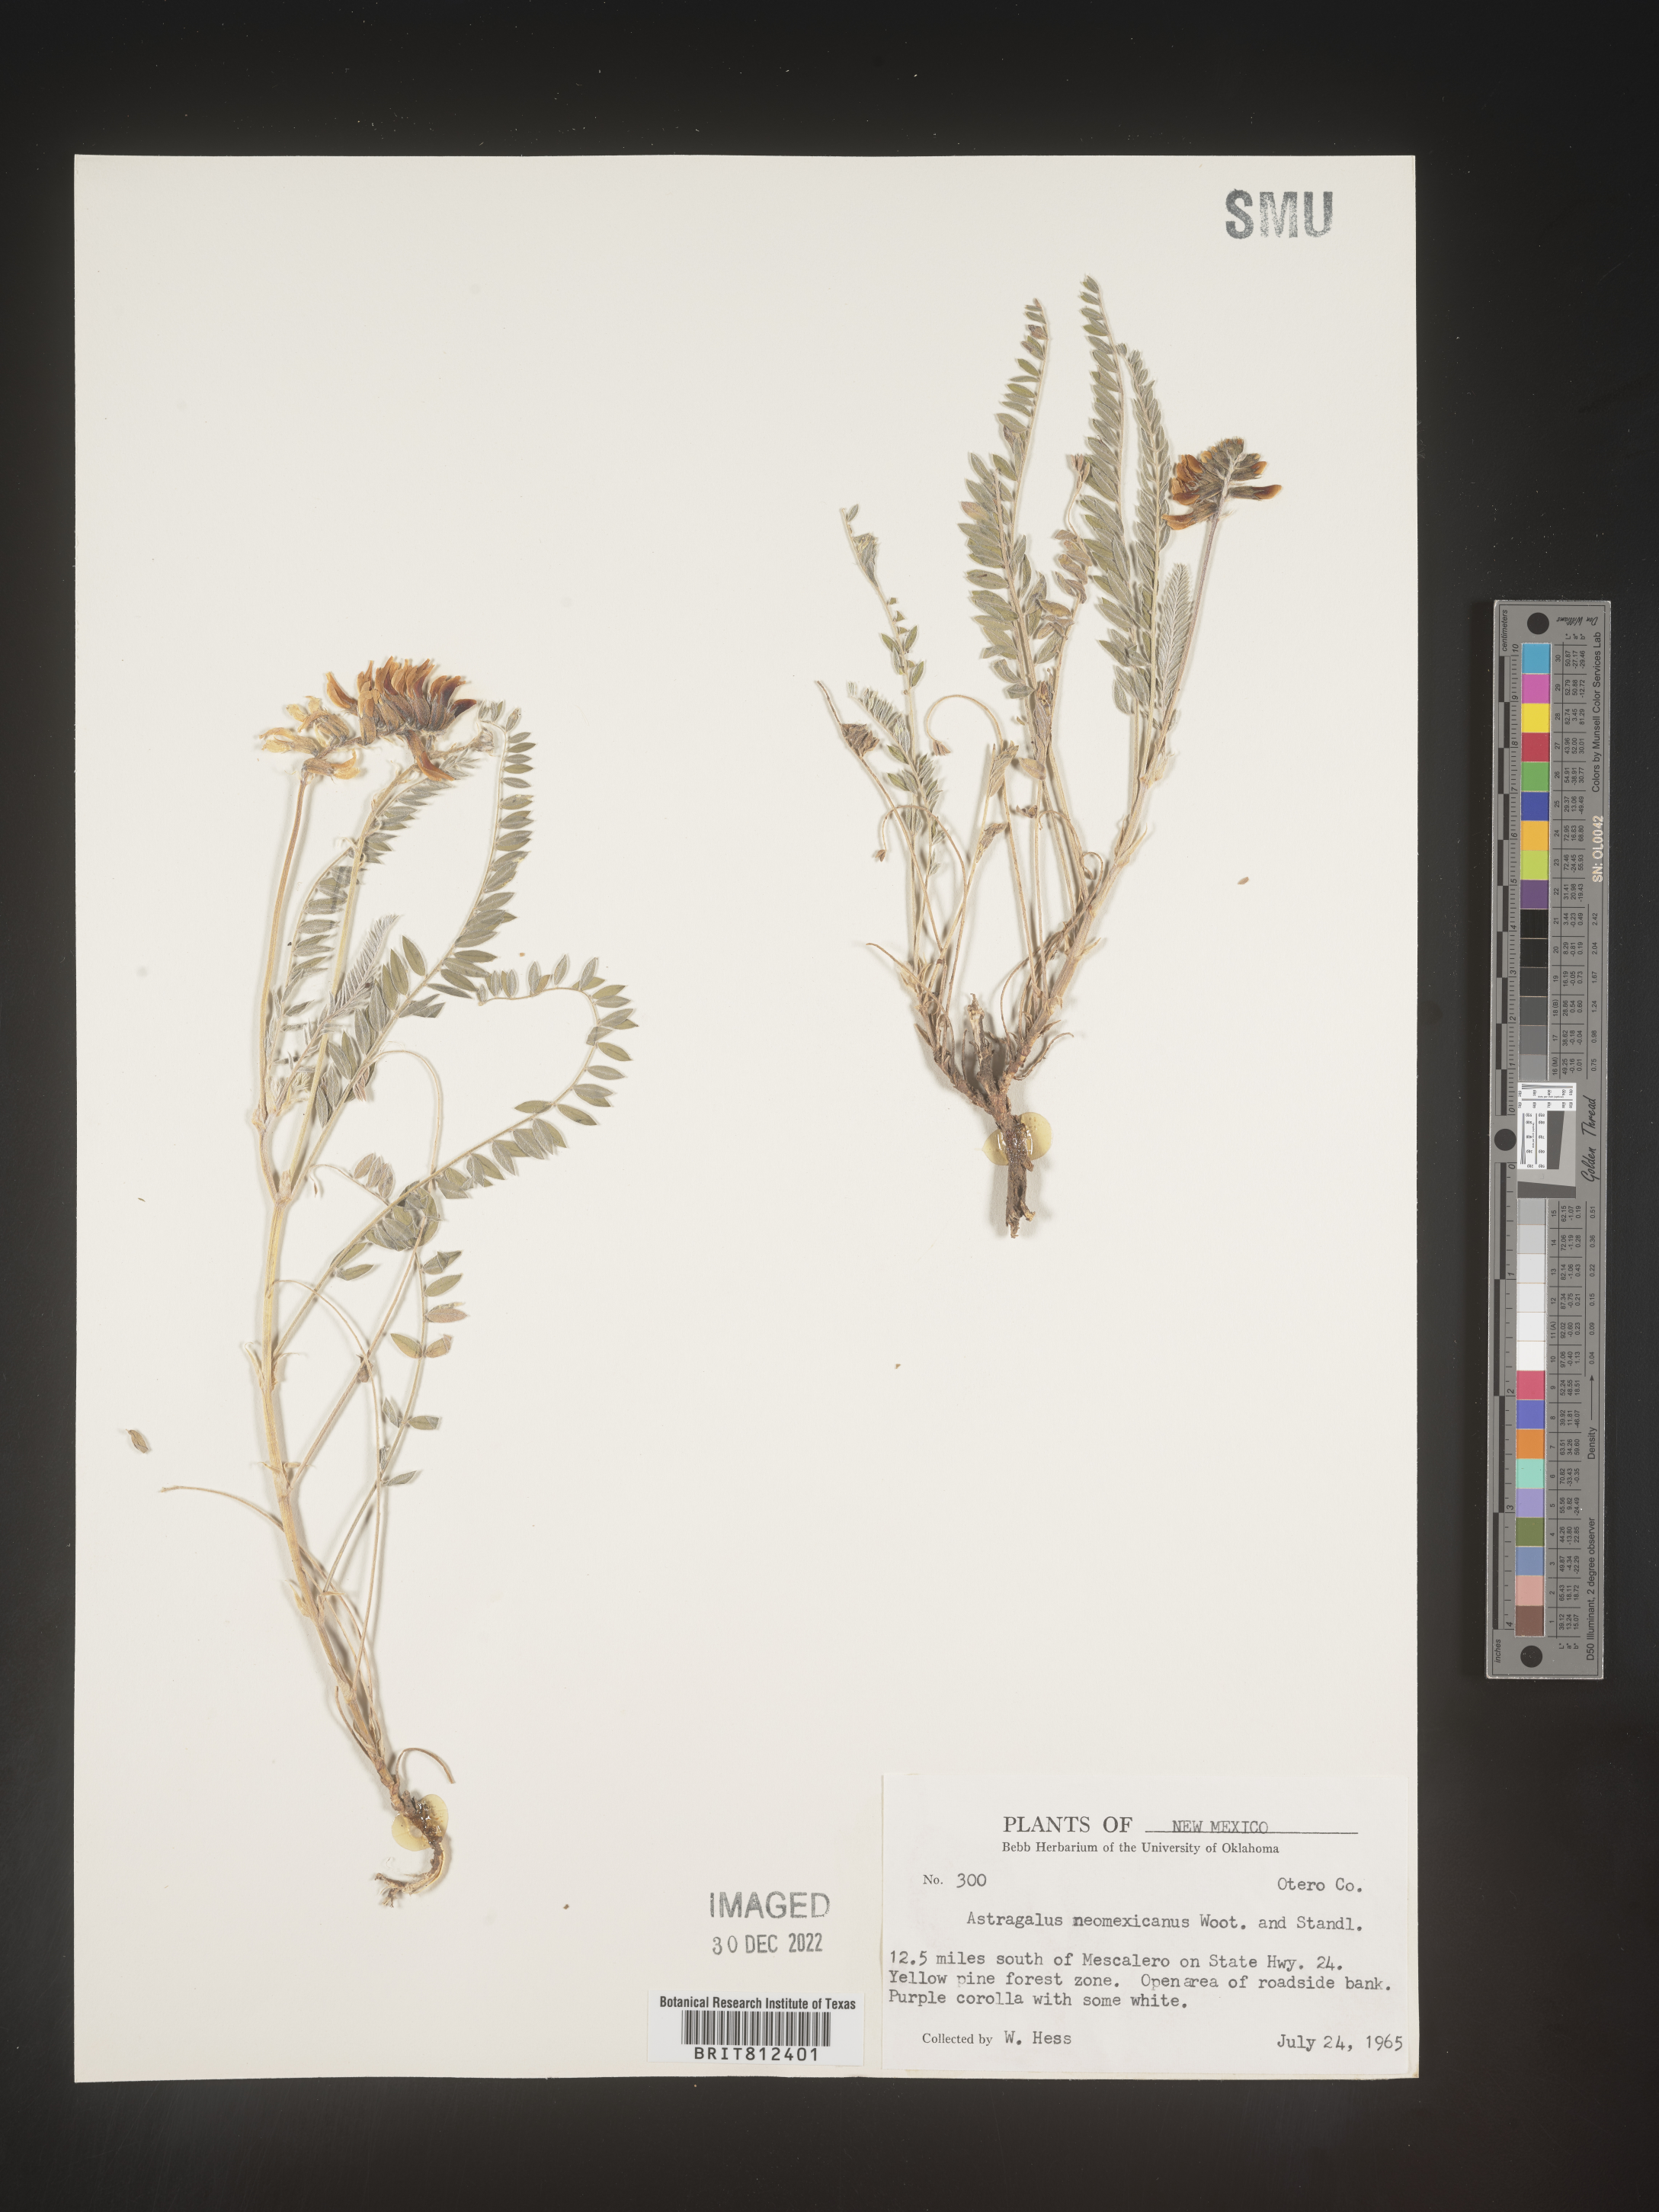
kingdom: Plantae
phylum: Tracheophyta
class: Magnoliopsida
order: Fabales
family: Fabaceae
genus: Astragalus
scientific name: Astragalus
